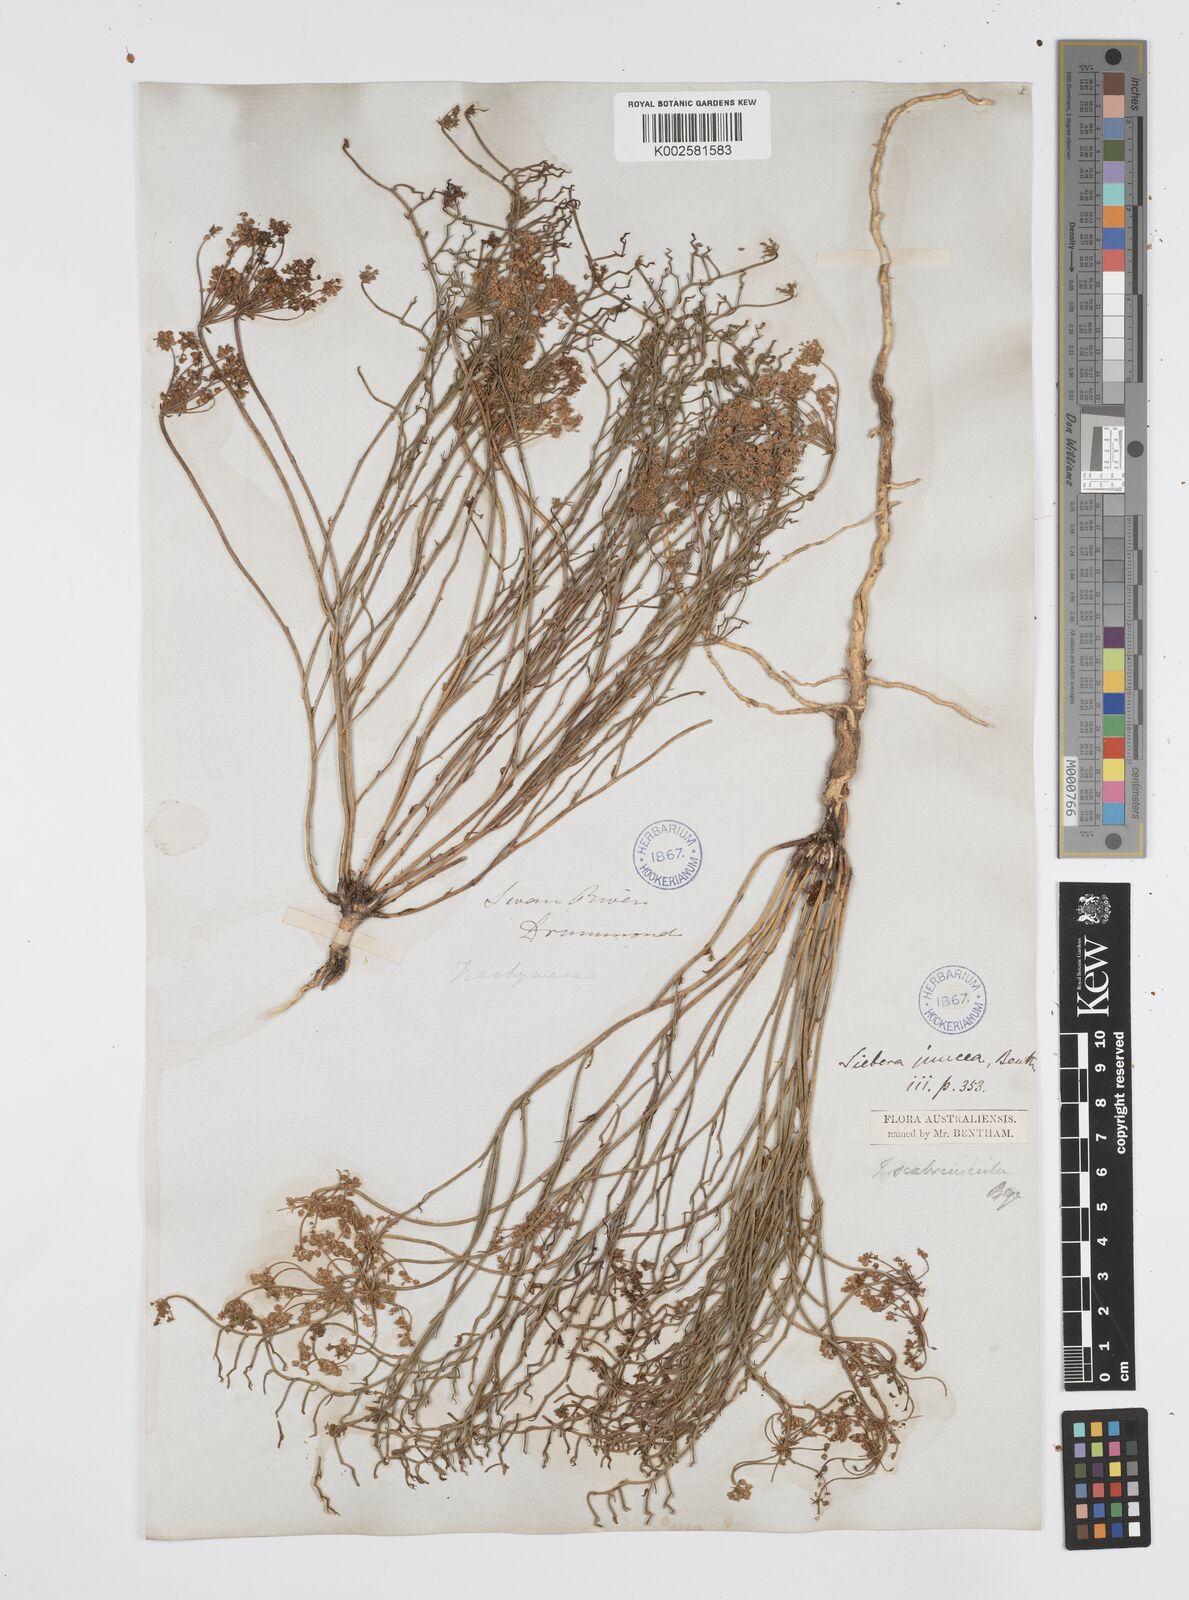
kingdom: Plantae
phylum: Tracheophyta
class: Magnoliopsida
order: Apiales
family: Apiaceae
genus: Platysace
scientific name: Platysace ramosissima
